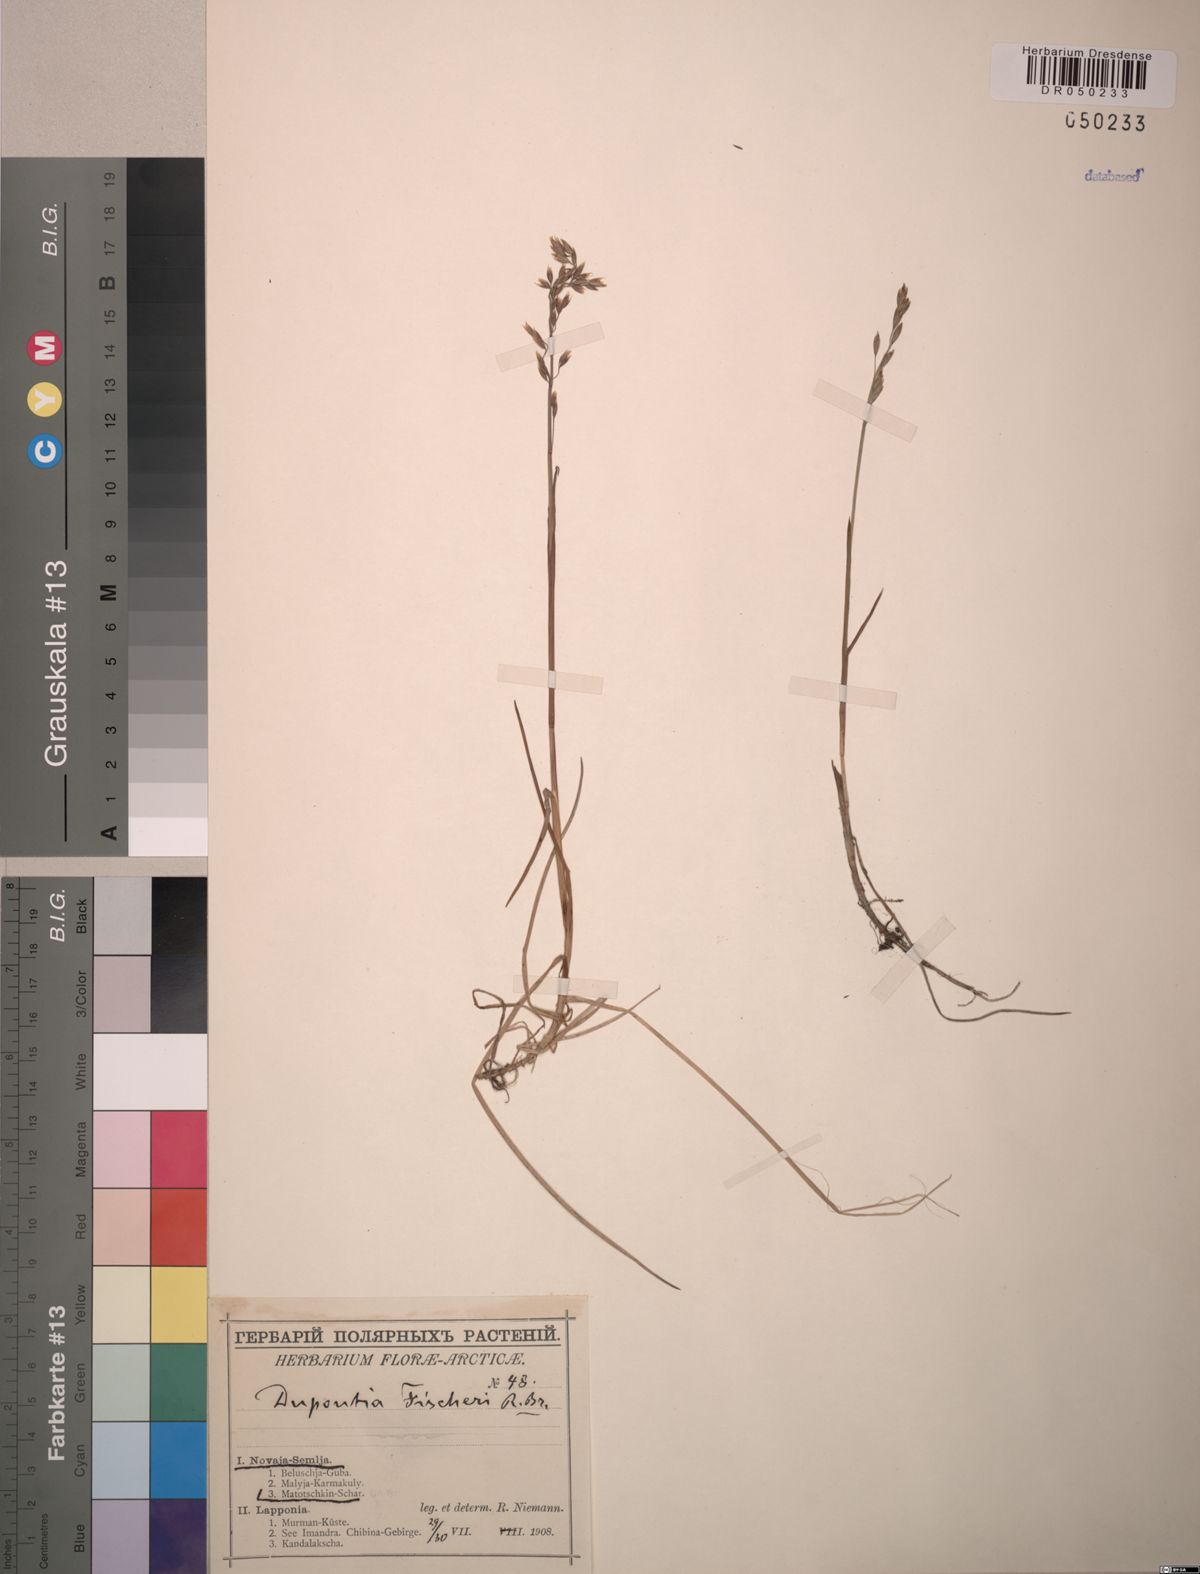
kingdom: Plantae
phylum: Tracheophyta
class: Liliopsida
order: Poales
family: Poaceae
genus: Dupontia
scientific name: Dupontia fisheri
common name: Tundra grass
